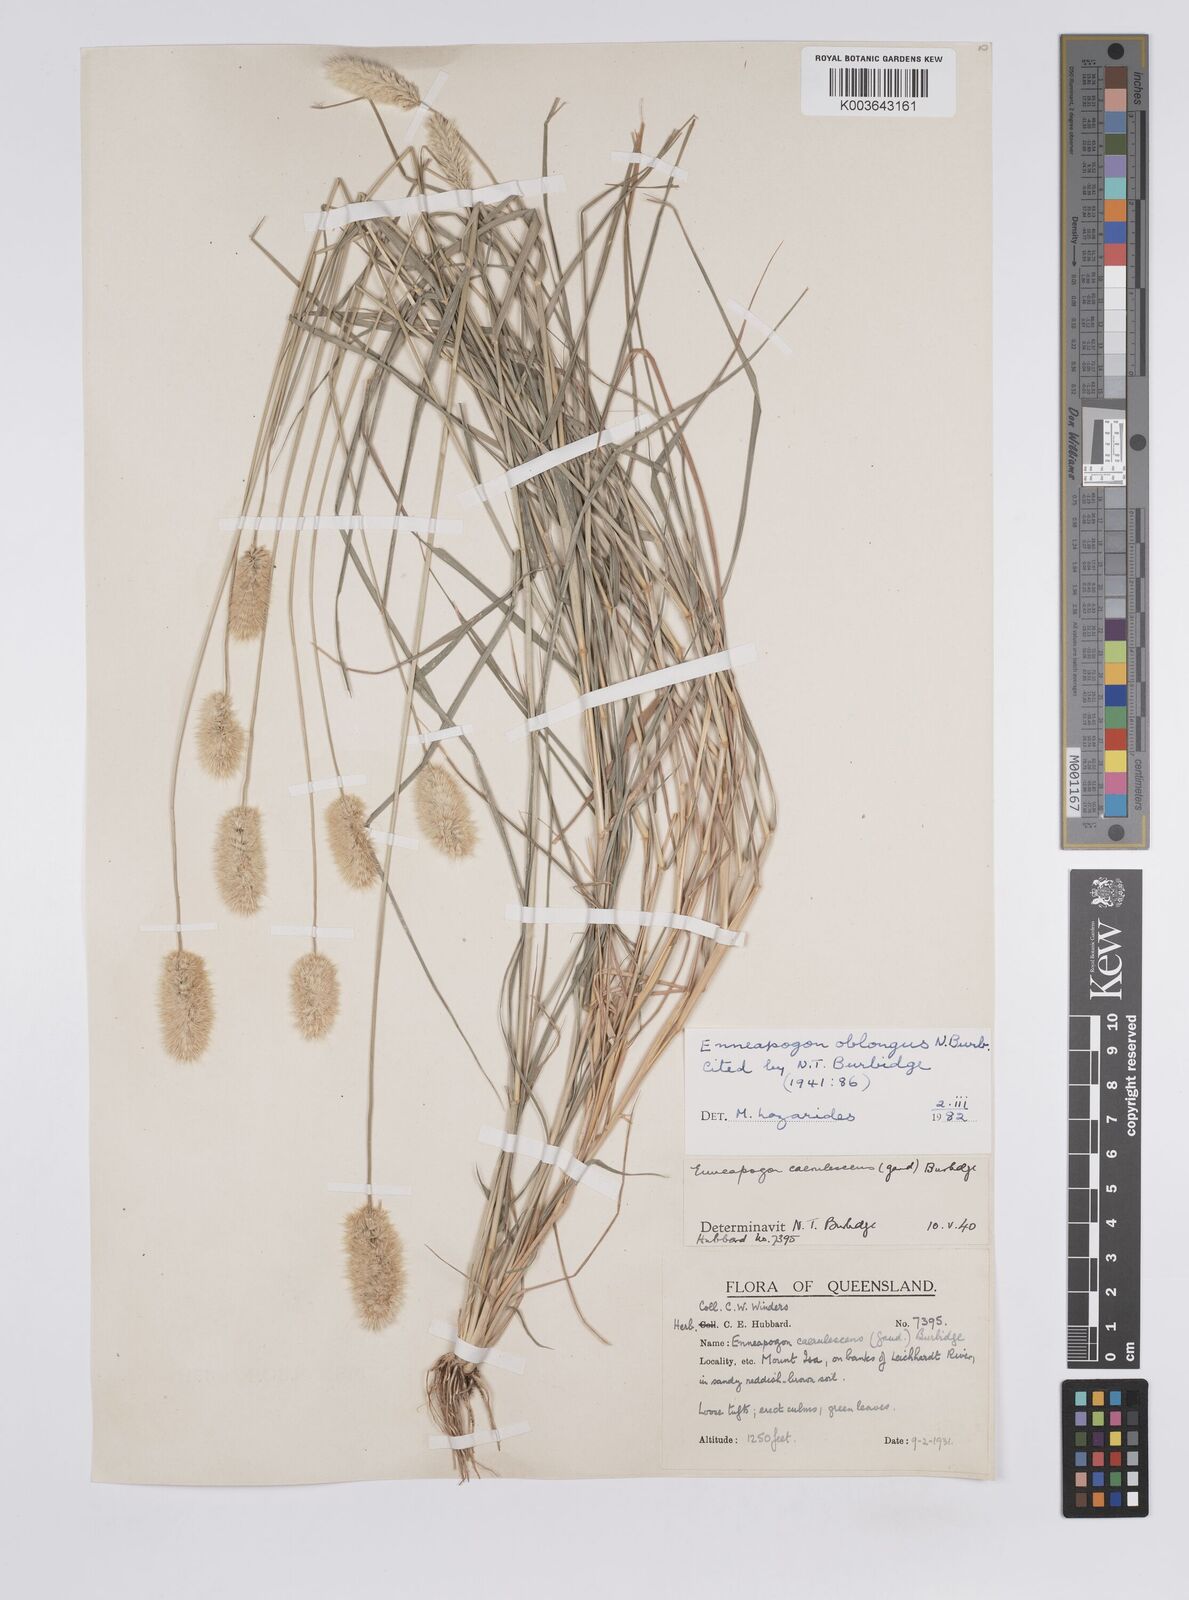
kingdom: Plantae
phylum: Tracheophyta
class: Liliopsida
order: Poales
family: Poaceae
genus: Enneapogon
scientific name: Enneapogon lindleyanus
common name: Conetop nineawn
